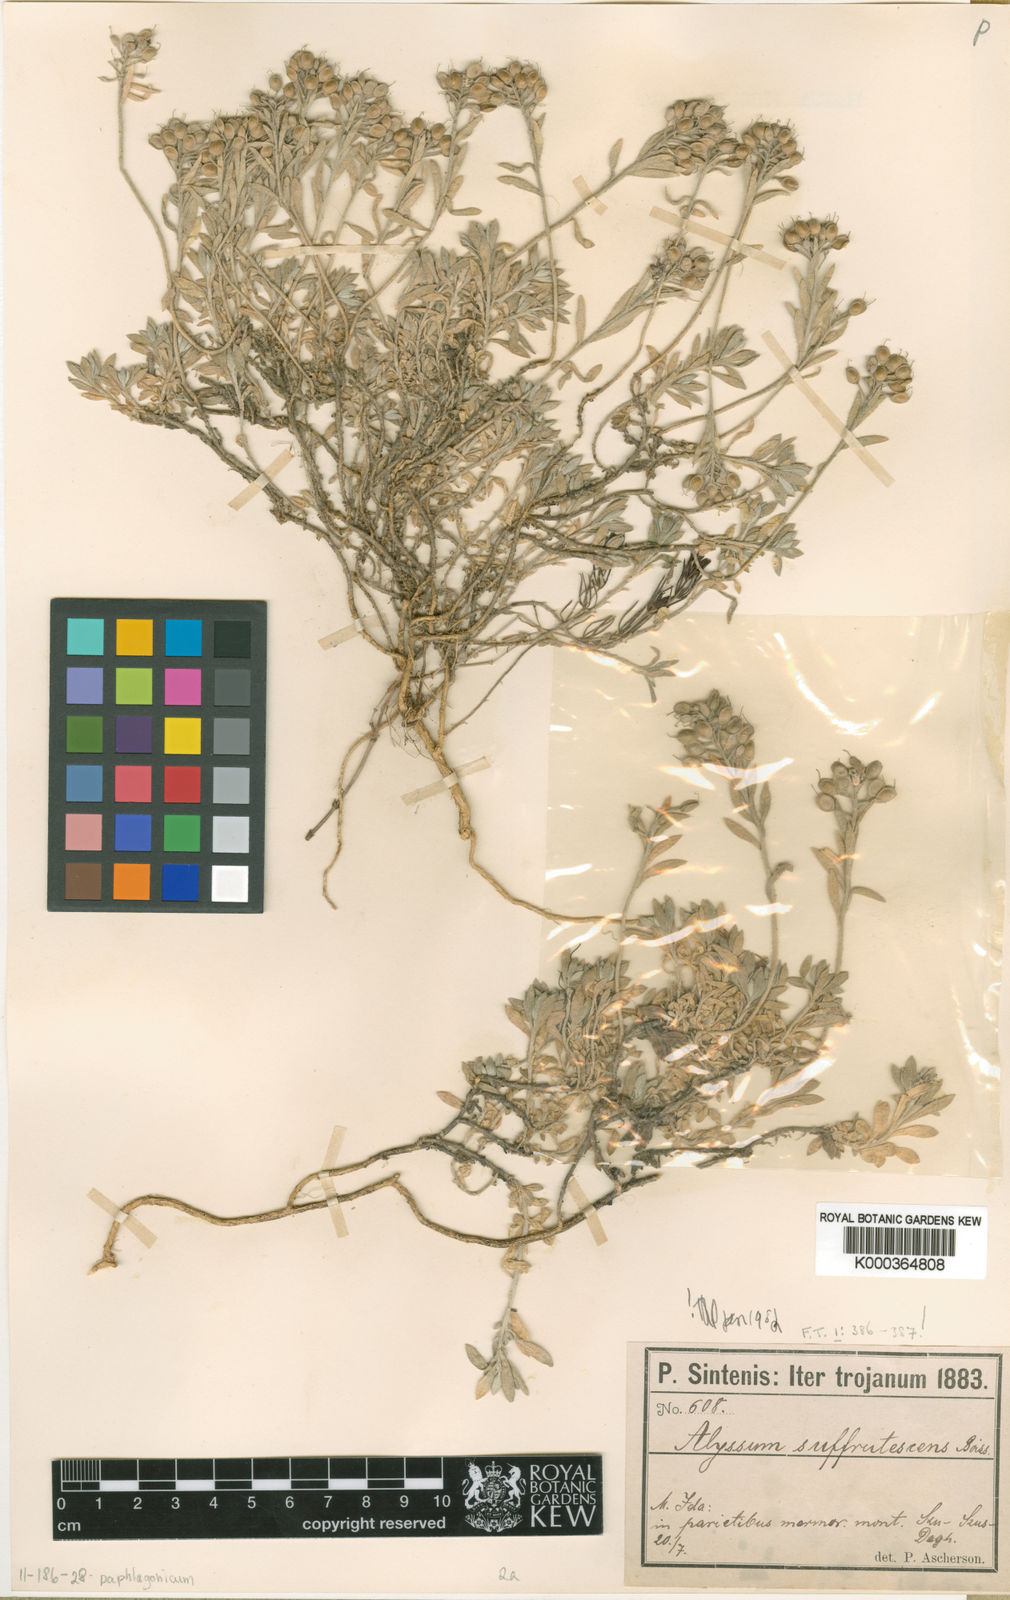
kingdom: Plantae
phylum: Tracheophyta
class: Magnoliopsida
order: Brassicales
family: Brassicaceae
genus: Draba
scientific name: Draba doerfleri
